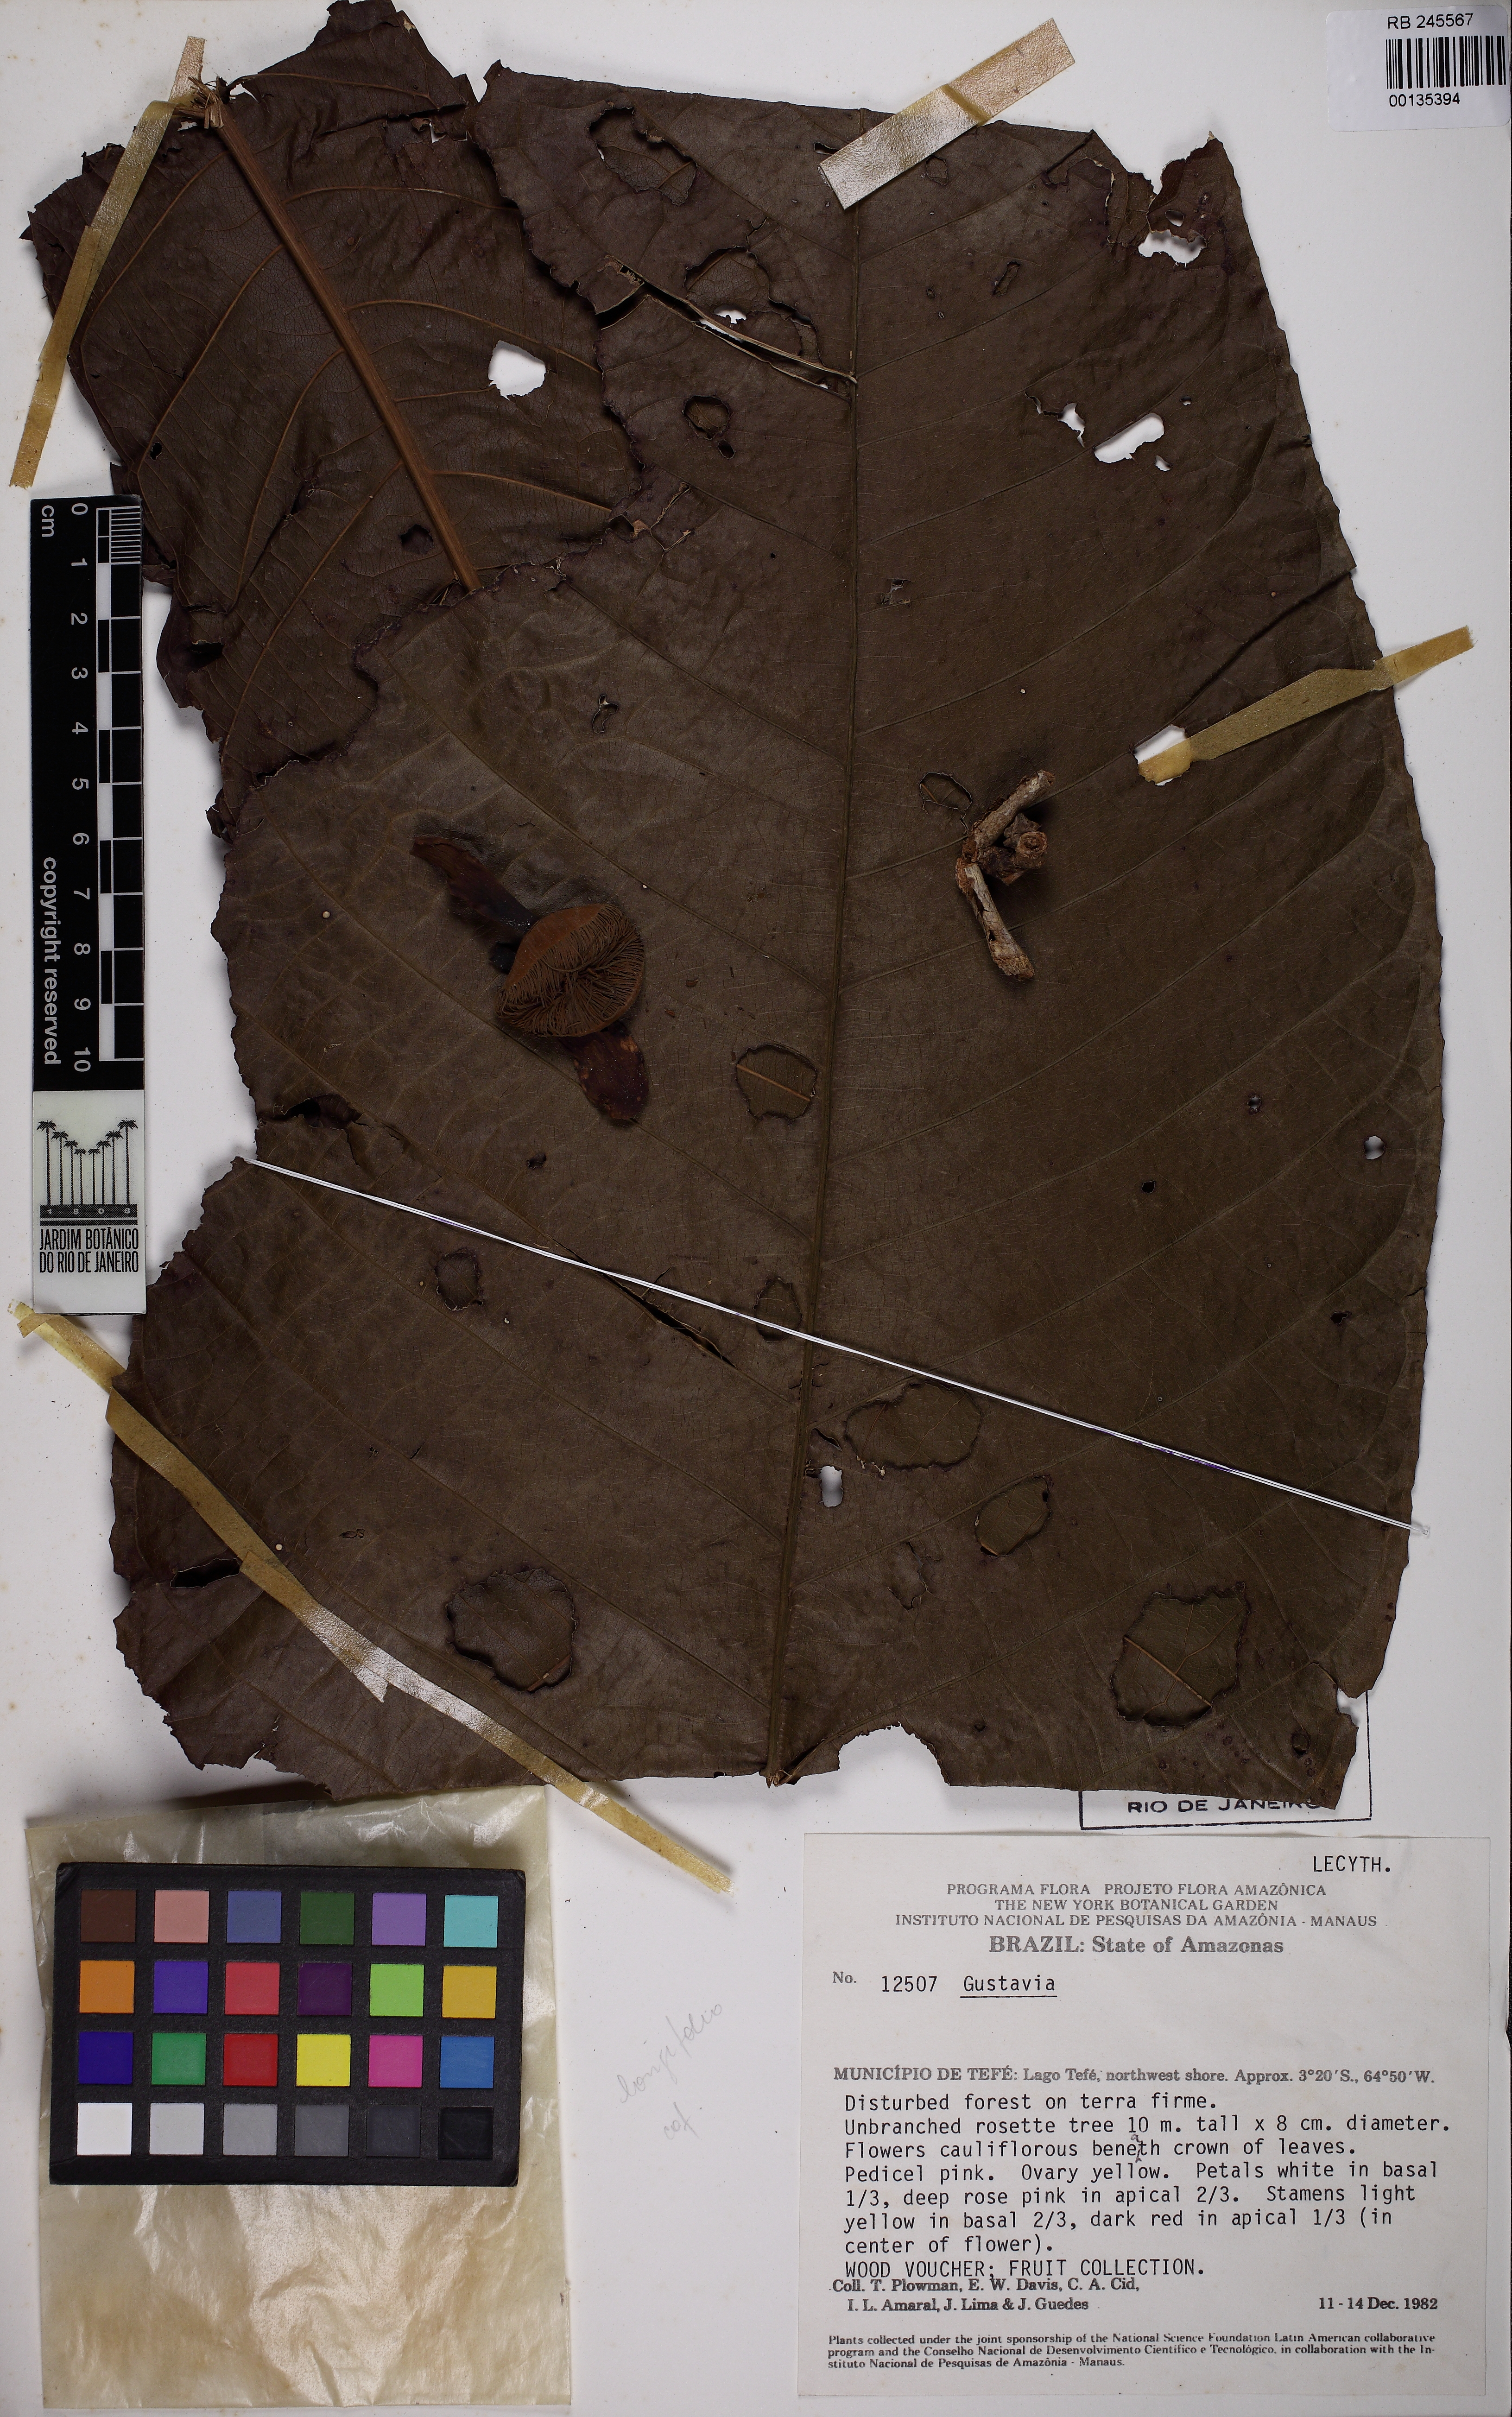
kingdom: Plantae
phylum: Tracheophyta
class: Magnoliopsida
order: Ericales
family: Lecythidaceae
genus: Gustavia
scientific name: Gustavia longifolia
